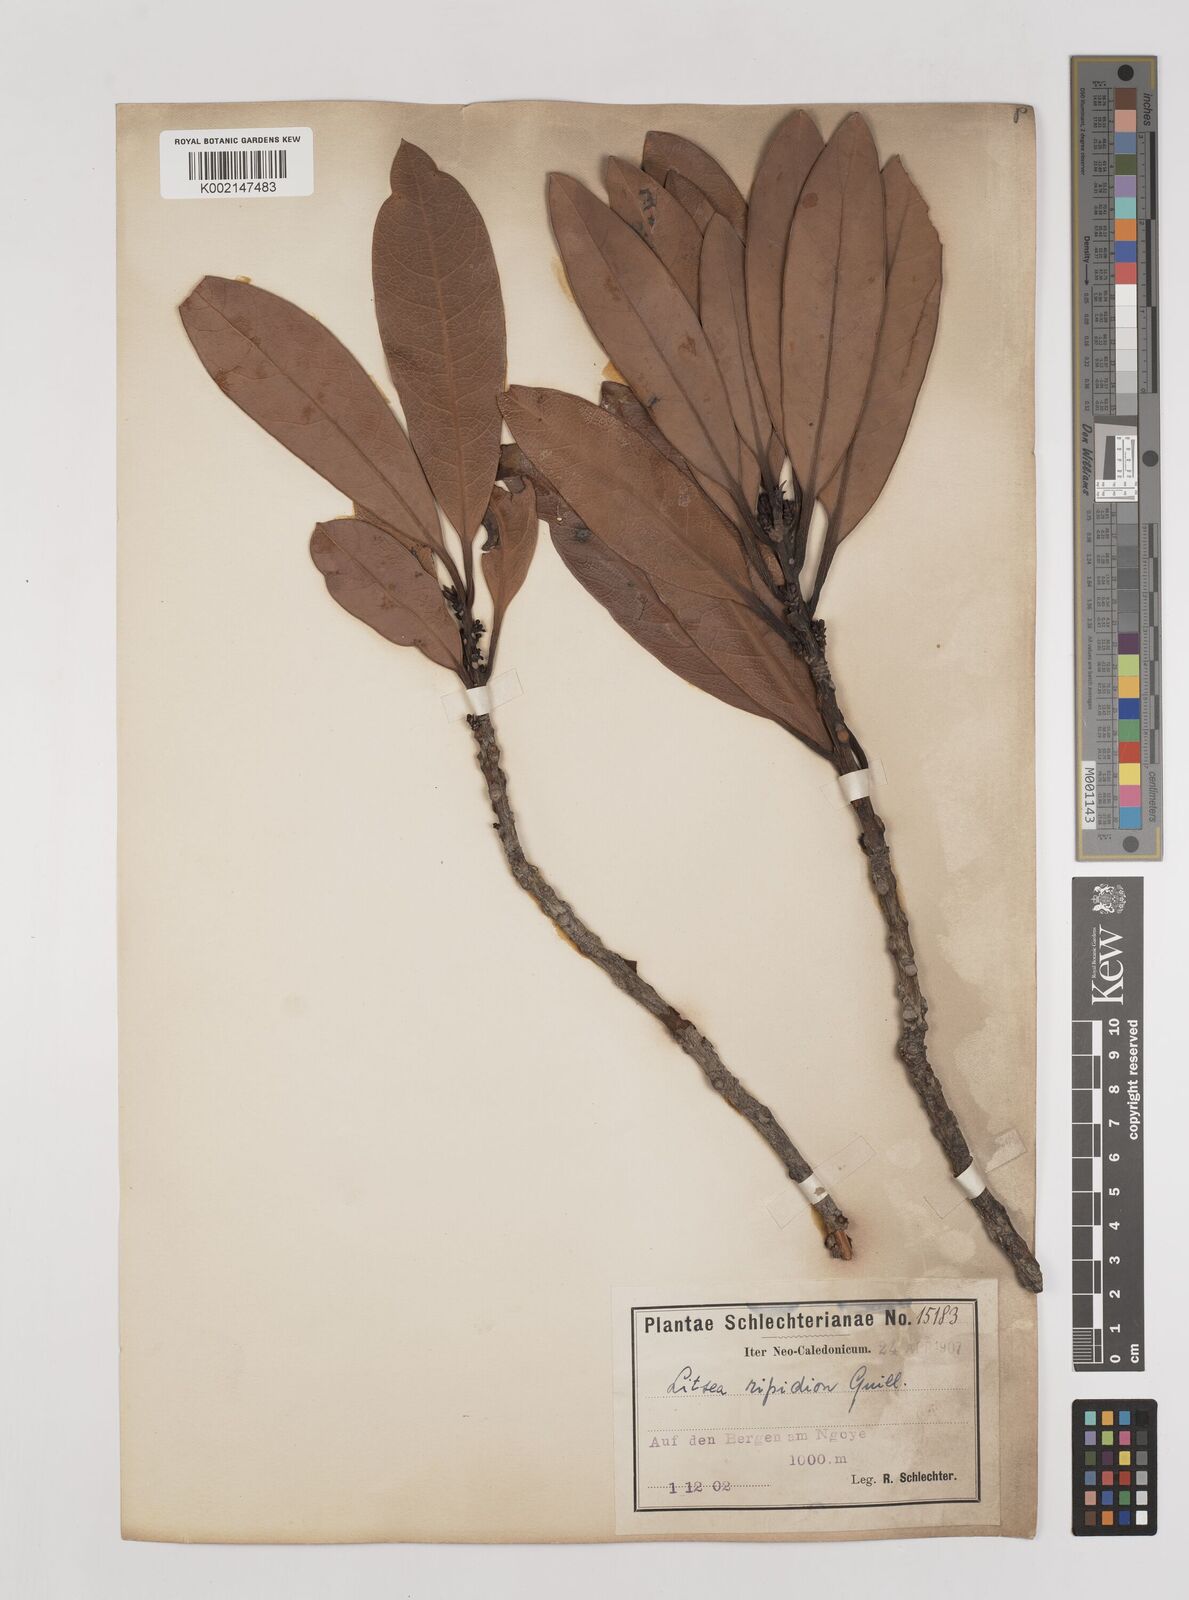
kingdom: Plantae
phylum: Tracheophyta
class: Magnoliopsida
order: Laurales
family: Lauraceae
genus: Litsea
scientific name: Litsea ripidion
